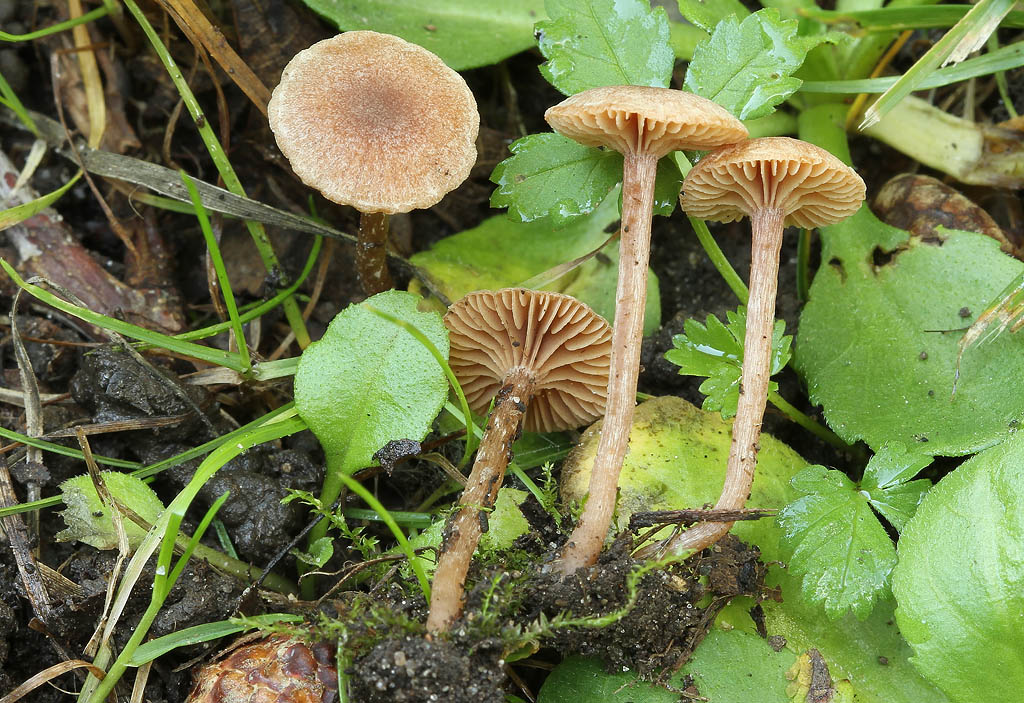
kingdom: Fungi
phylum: Basidiomycota
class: Agaricomycetes
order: Agaricales
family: Tubariaceae
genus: Tubaria
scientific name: Tubaria conspersa
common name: bleg fnughat
